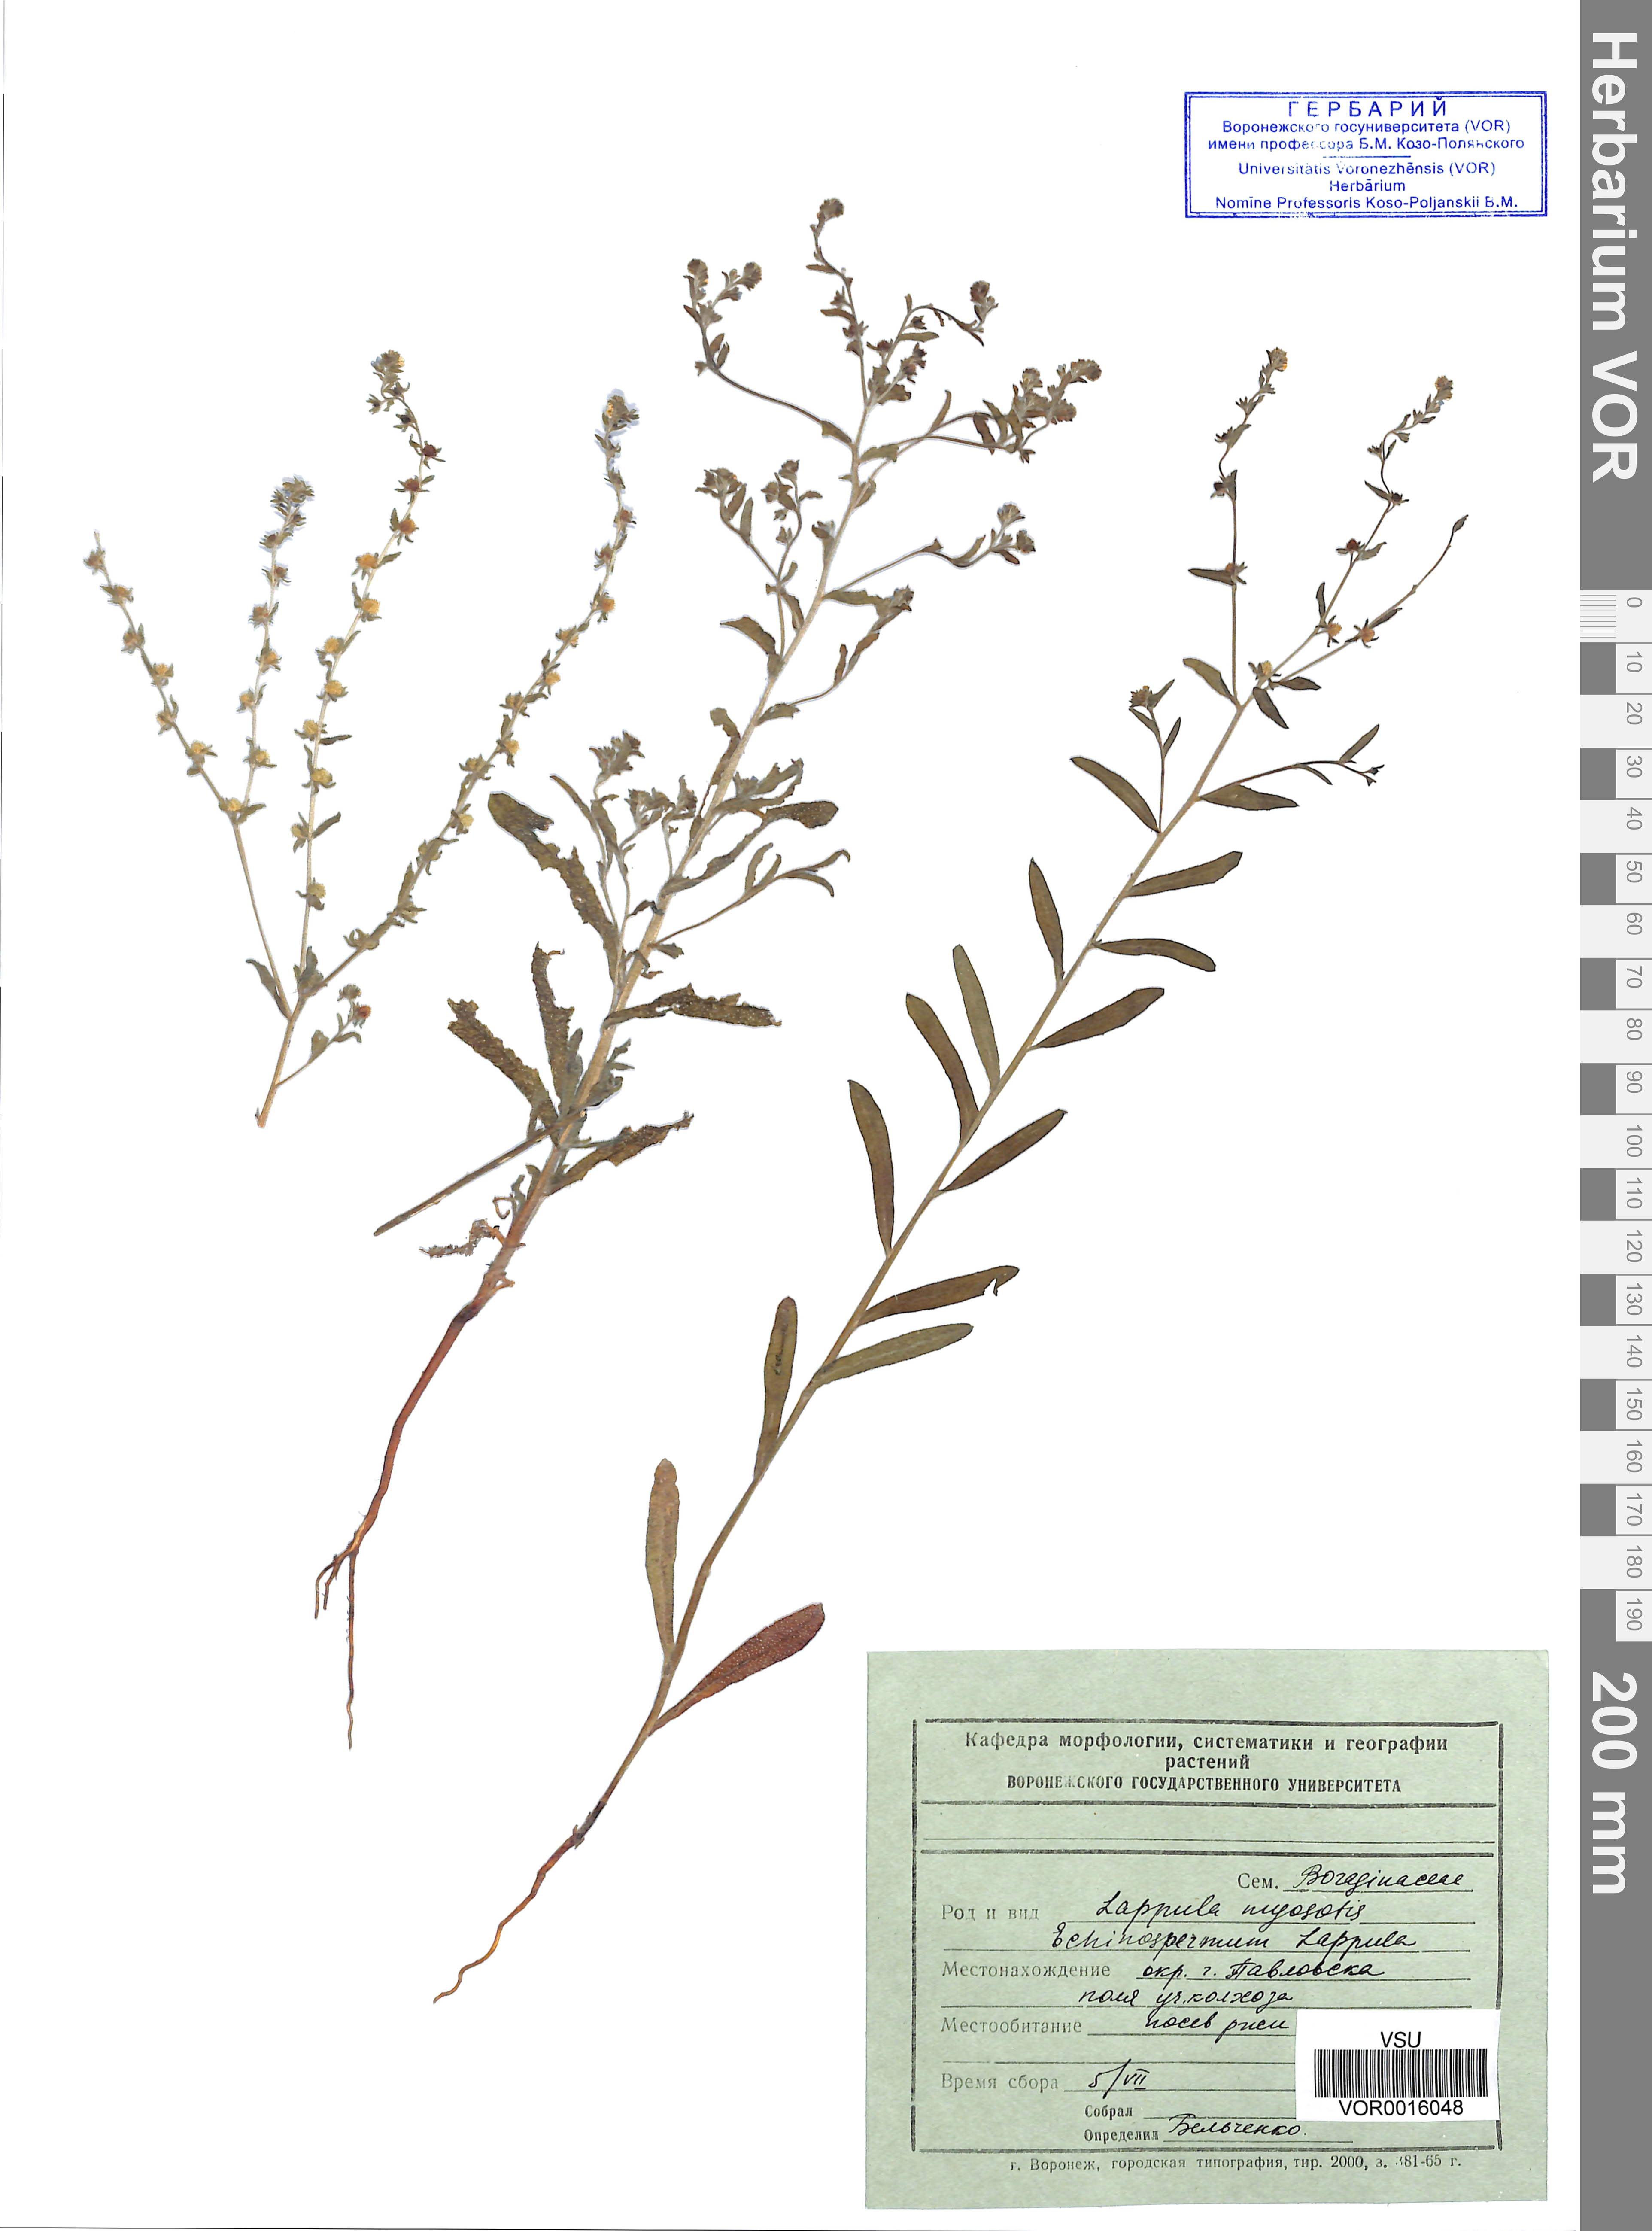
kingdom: Plantae
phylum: Tracheophyta
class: Magnoliopsida
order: Boraginales
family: Boraginaceae
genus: Lappula
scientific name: Lappula squarrosa
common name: European stickseed
